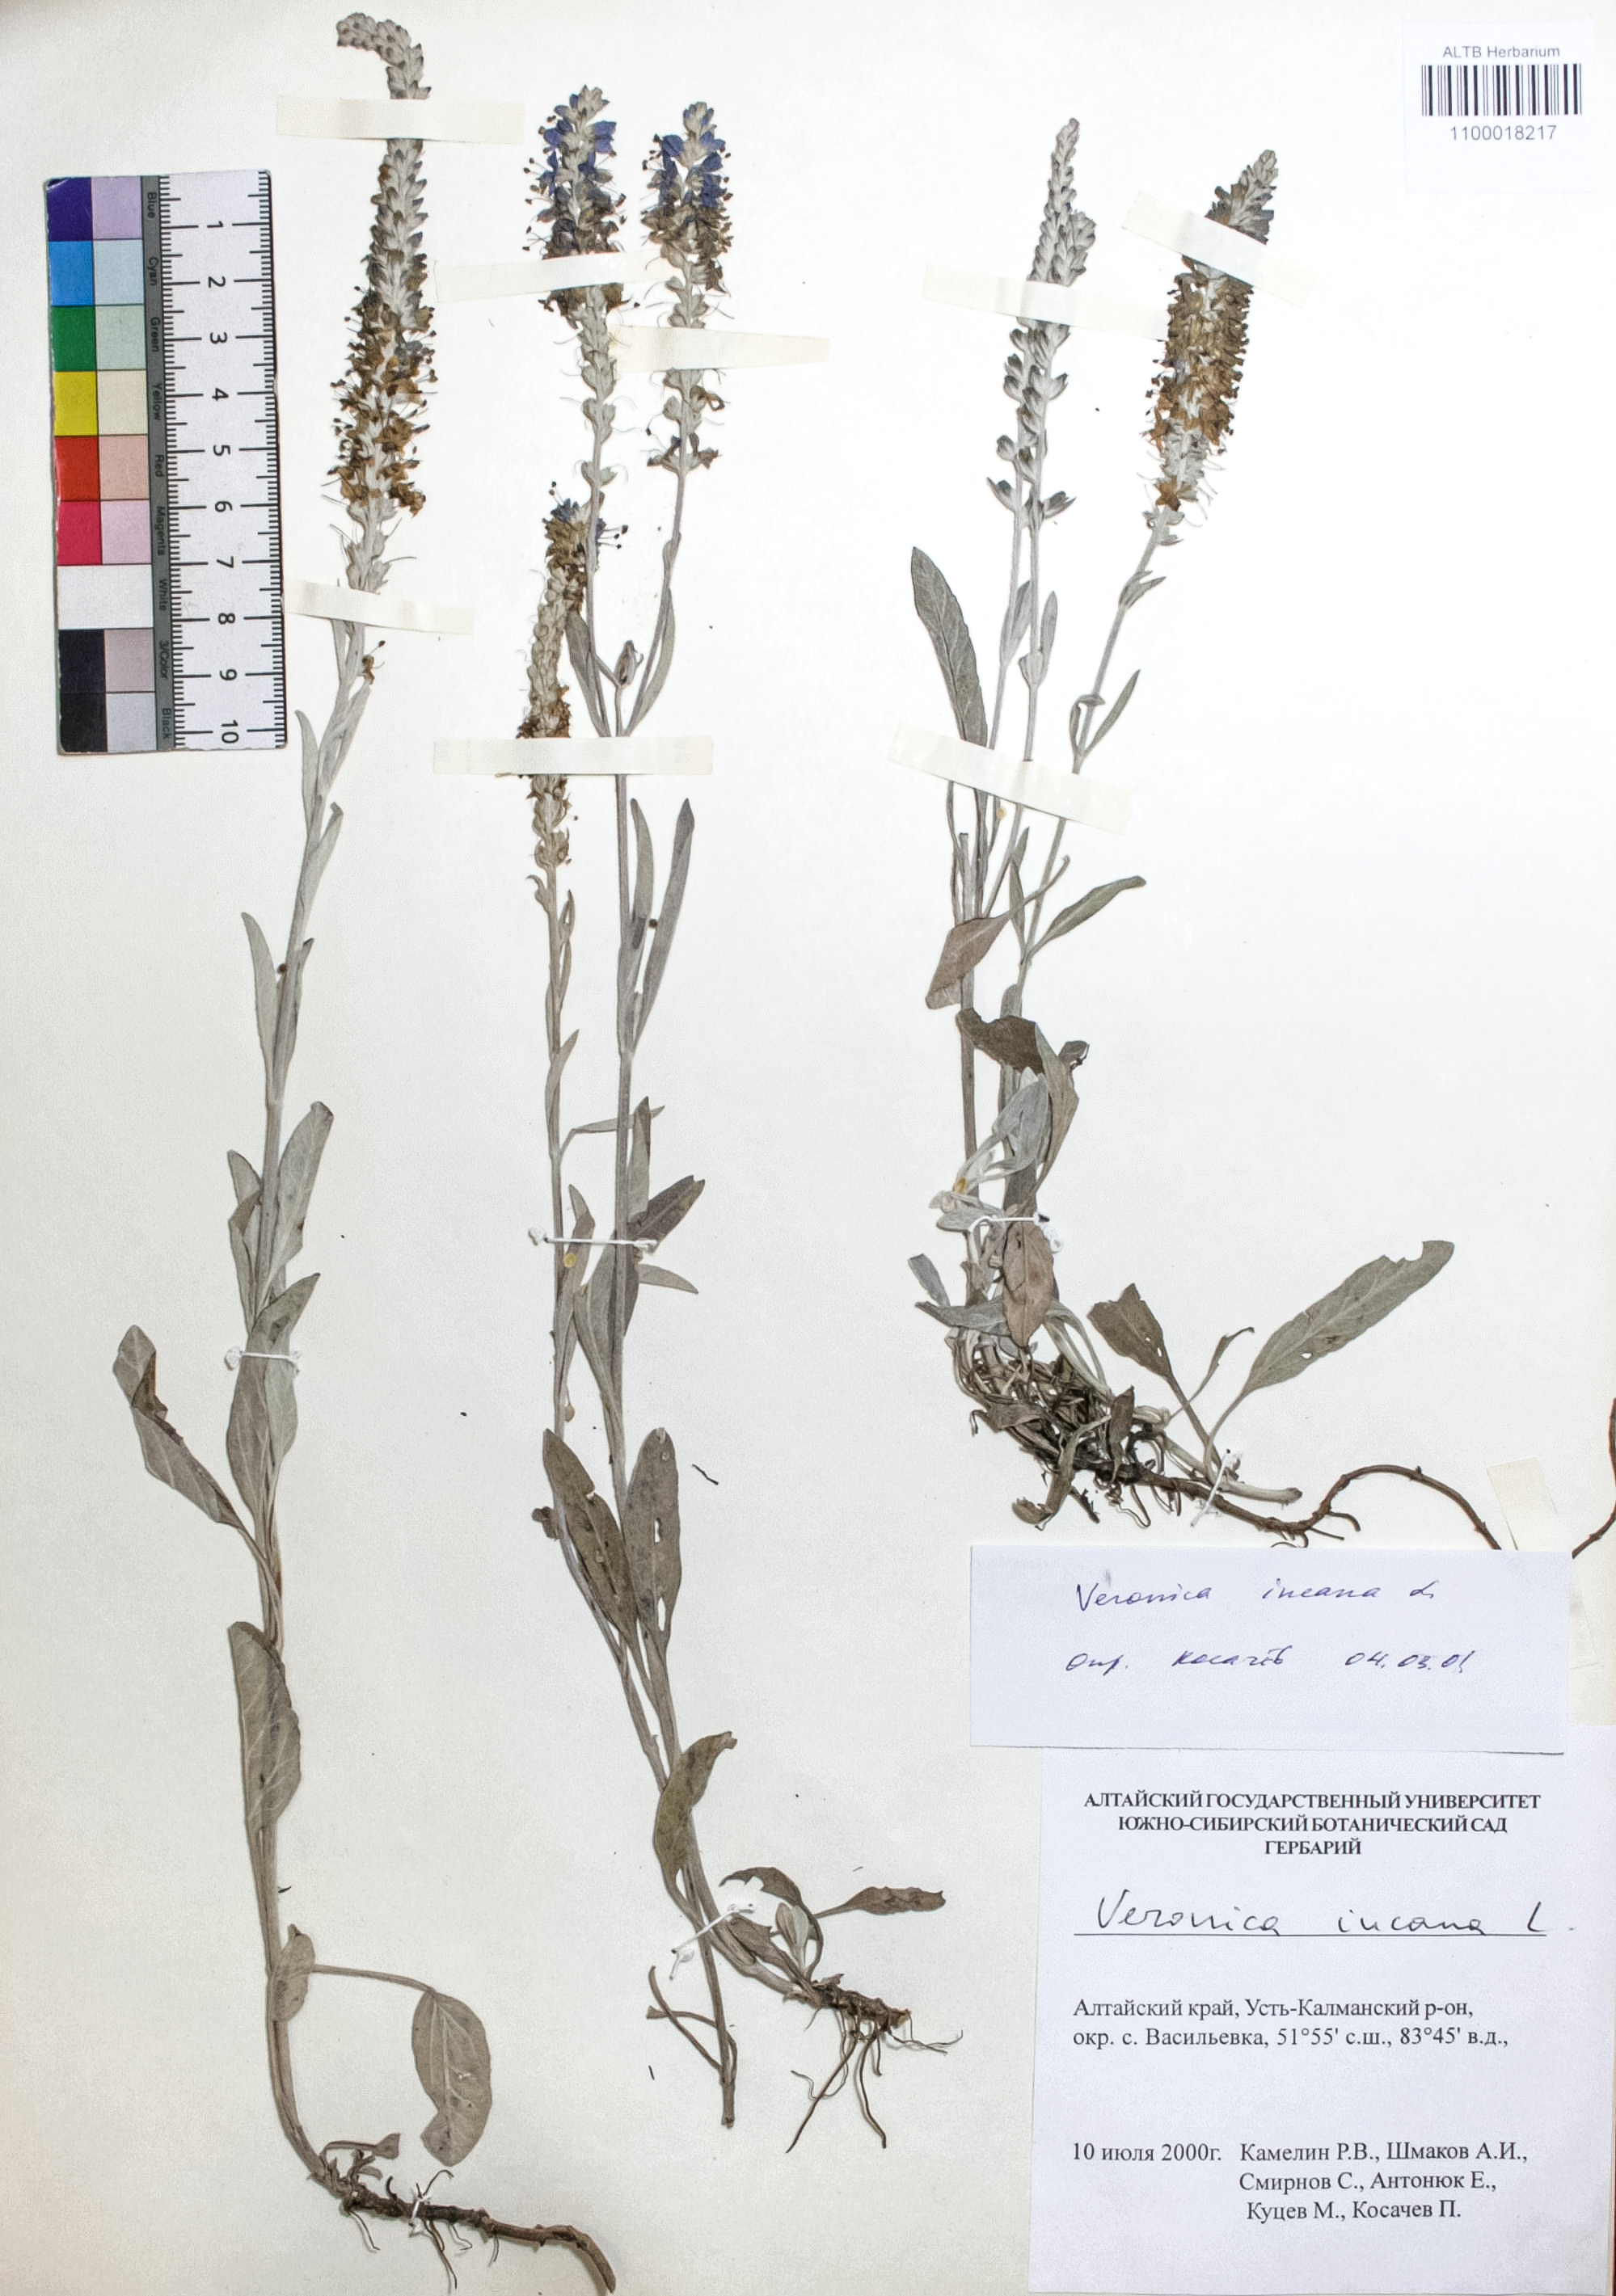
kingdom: Plantae
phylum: Tracheophyta
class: Magnoliopsida
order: Lamiales
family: Plantaginaceae
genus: Veronica
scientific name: Veronica incana
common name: Silver speedwell
